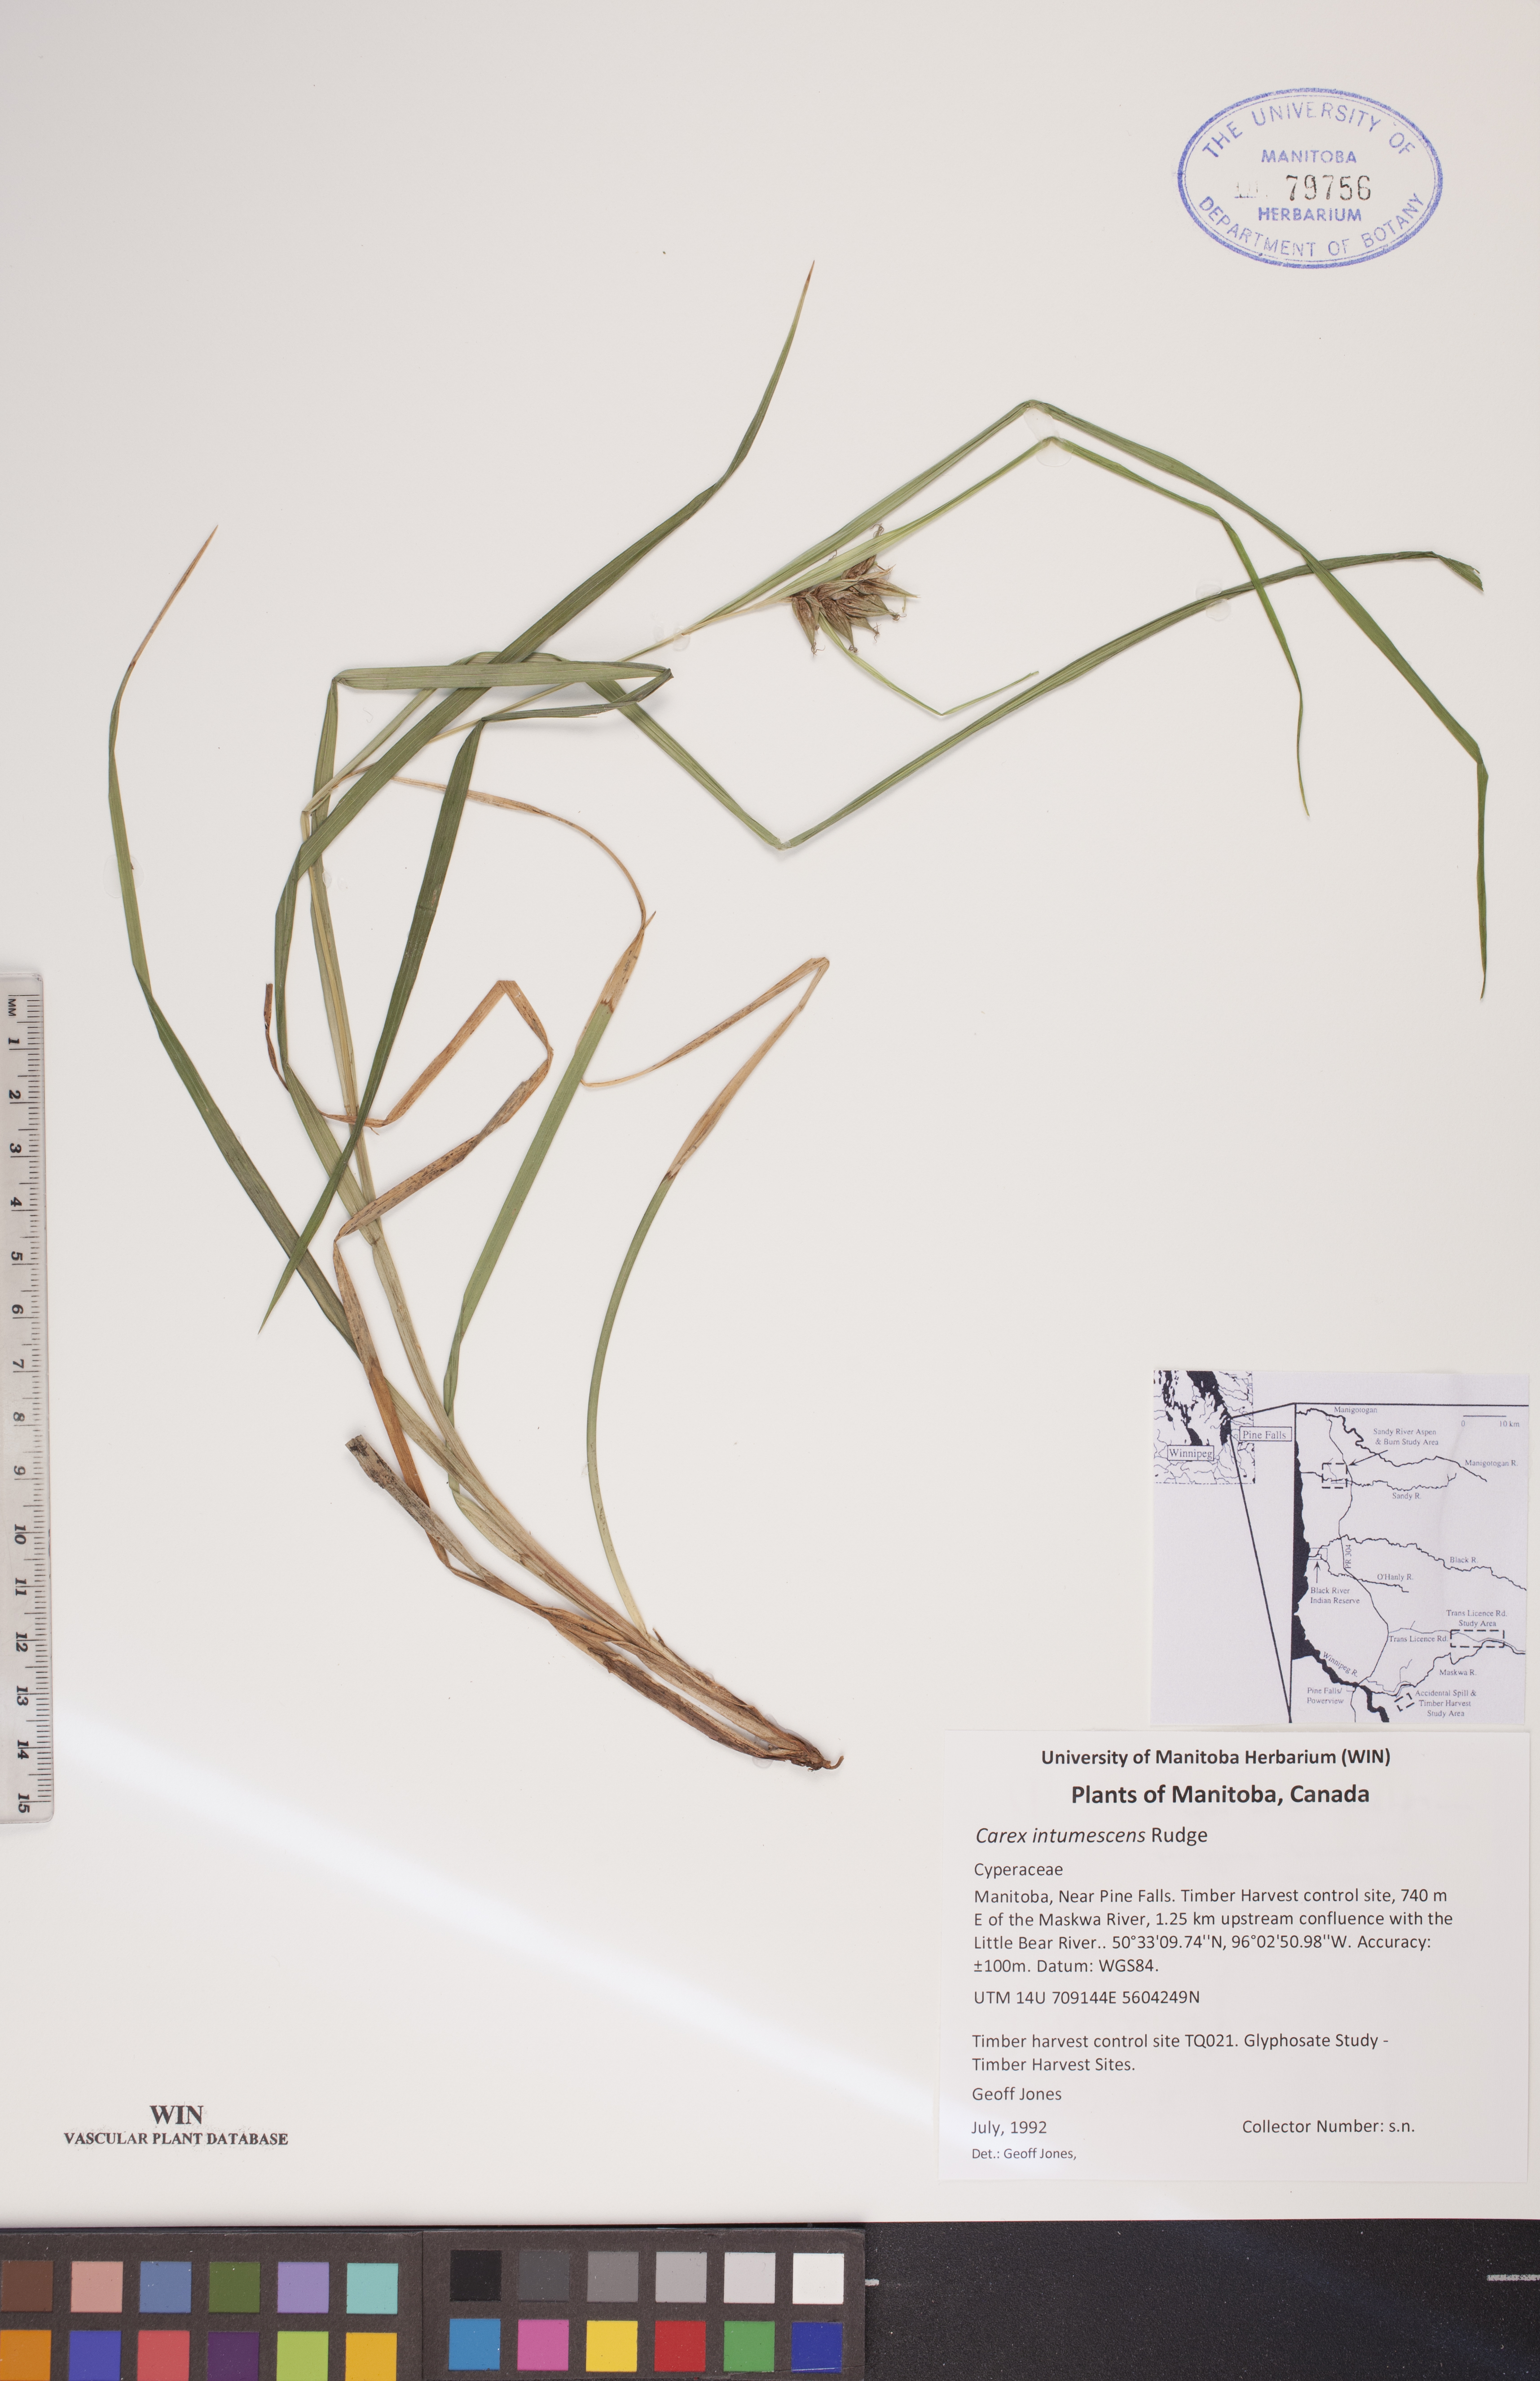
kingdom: Plantae
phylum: Tracheophyta
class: Liliopsida
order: Poales
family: Cyperaceae
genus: Carex
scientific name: Carex intumescens
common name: Greater bladder sedge
